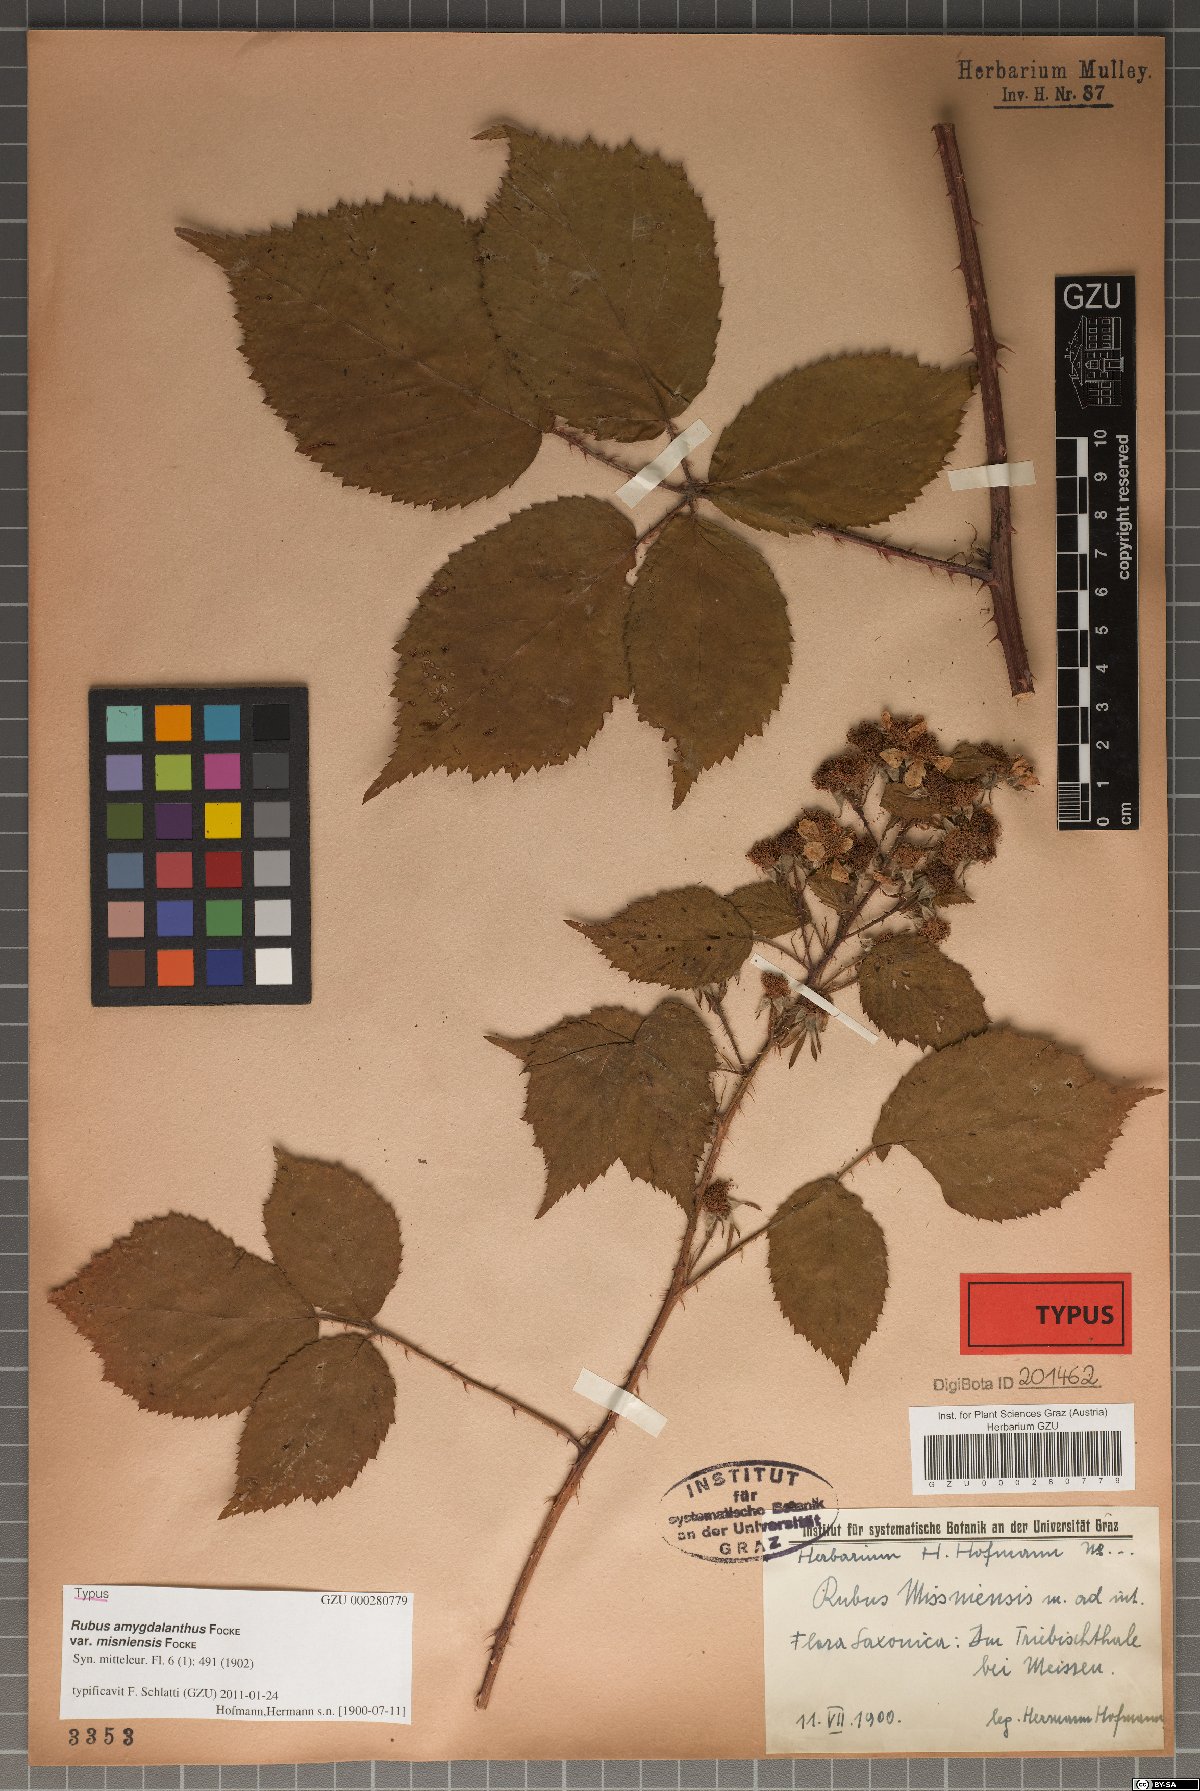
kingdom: Plantae
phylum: Tracheophyta
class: Magnoliopsida
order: Rosales
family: Rosaceae
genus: Rubus
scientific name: Rubus amygdalanthus
